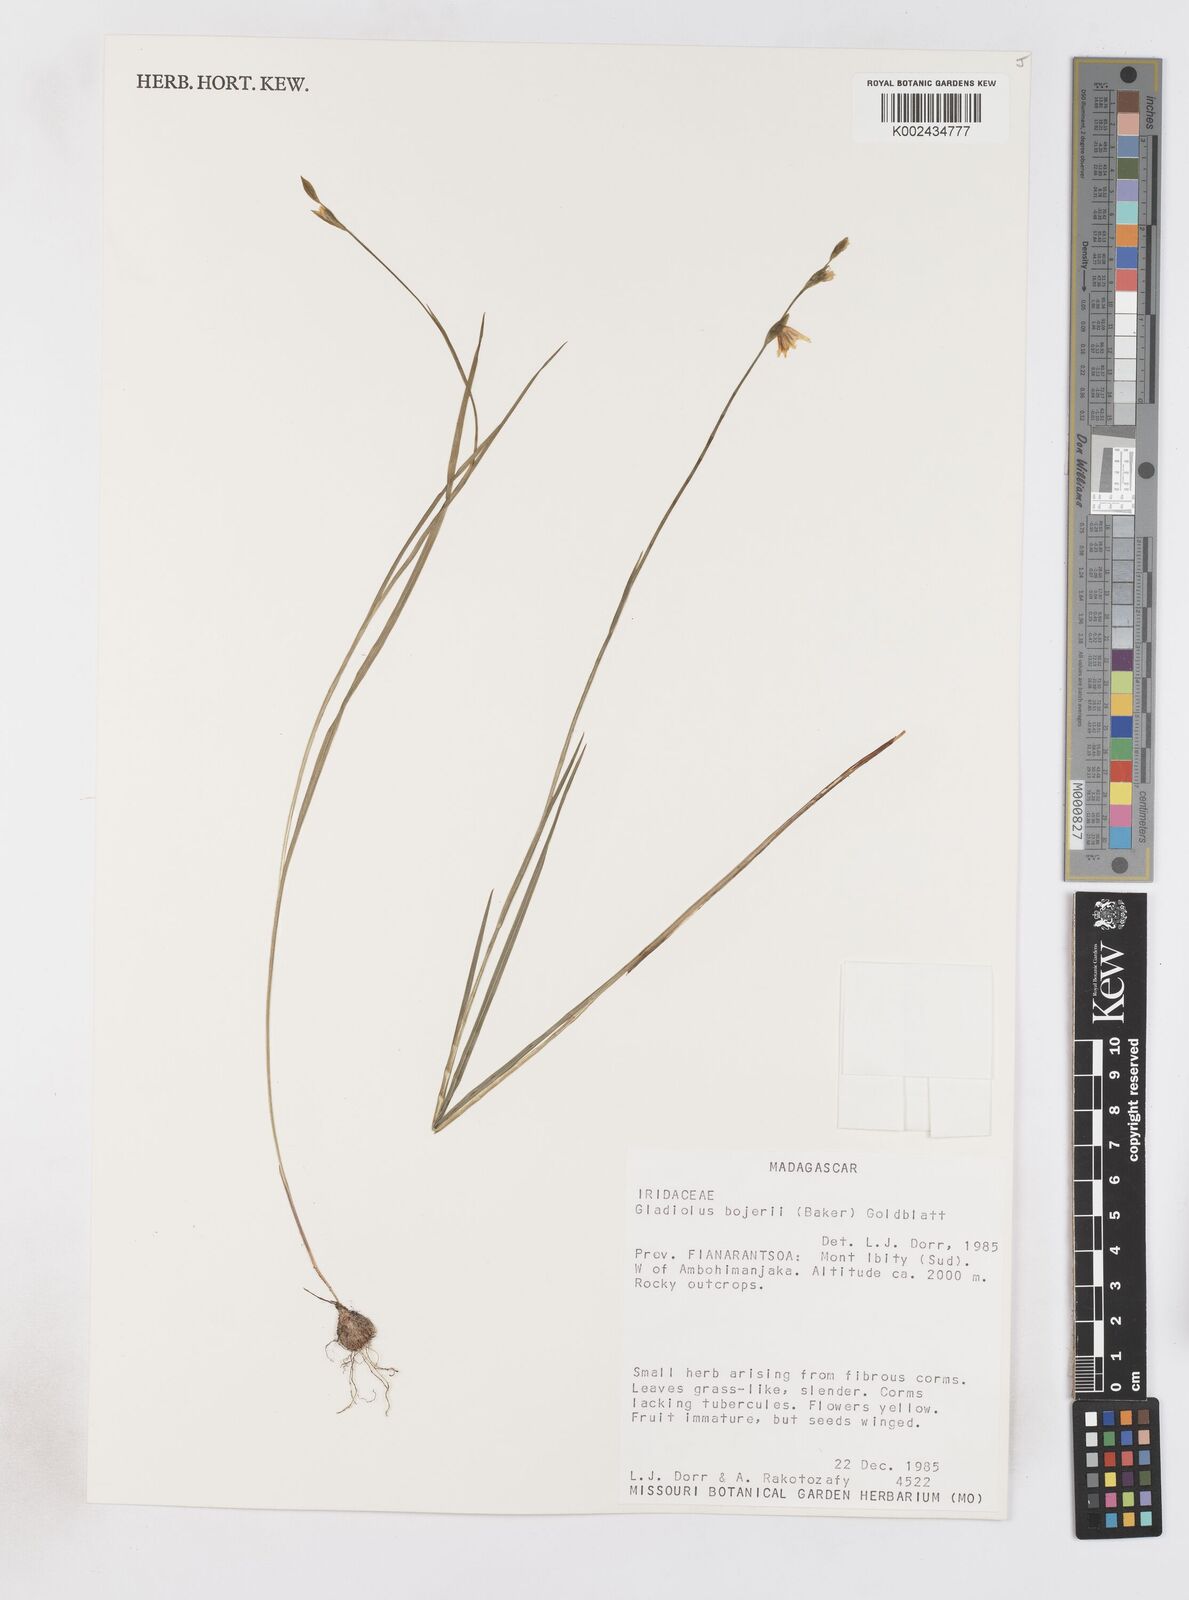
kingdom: Plantae
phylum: Tracheophyta
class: Liliopsida
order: Asparagales
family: Iridaceae
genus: Gladiolus
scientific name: Gladiolus bojeri
